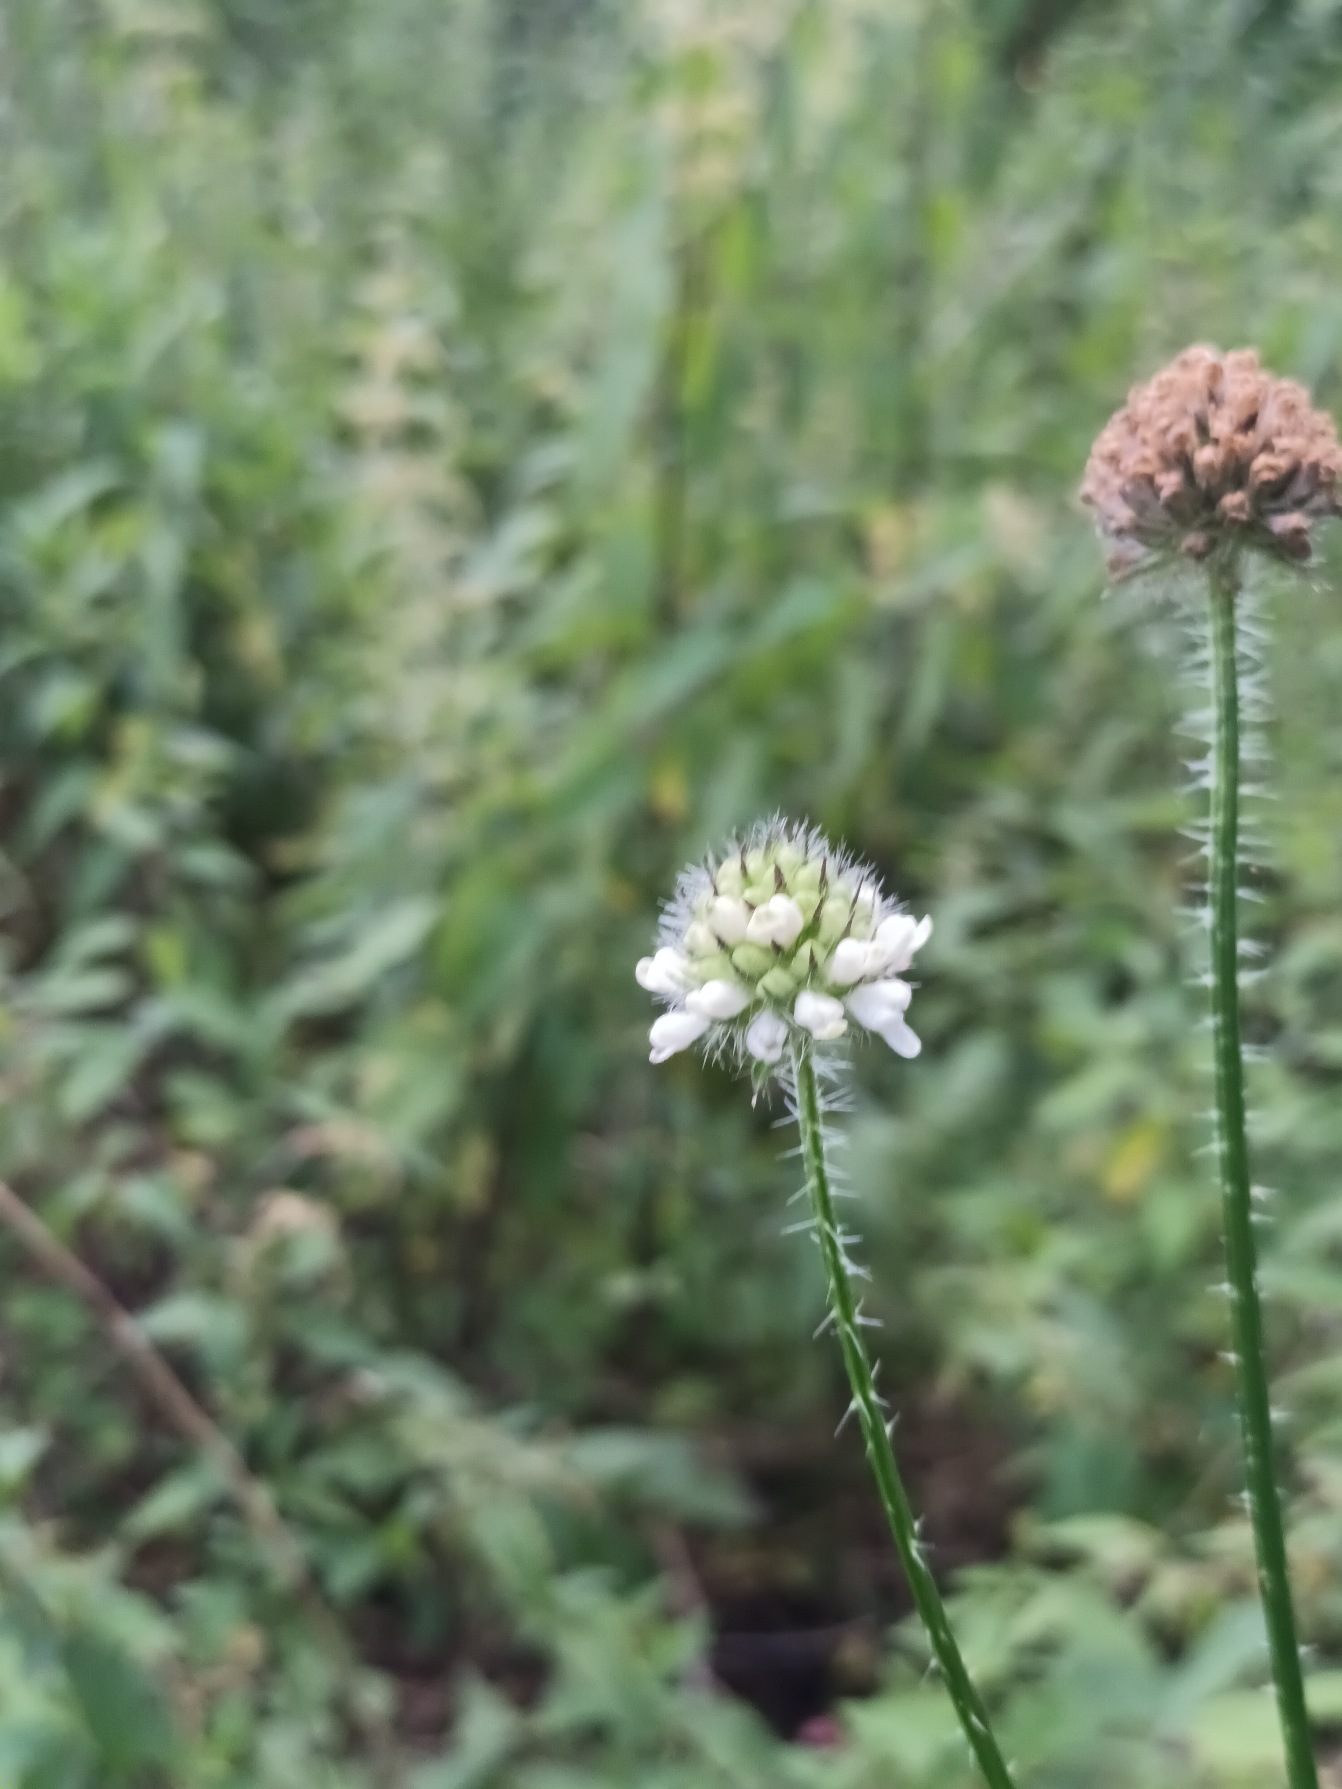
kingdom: Plantae
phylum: Tracheophyta
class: Magnoliopsida
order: Dipsacales
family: Caprifoliaceae
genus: Dipsacus
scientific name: Dipsacus pilosus
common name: Håret kartebolle
